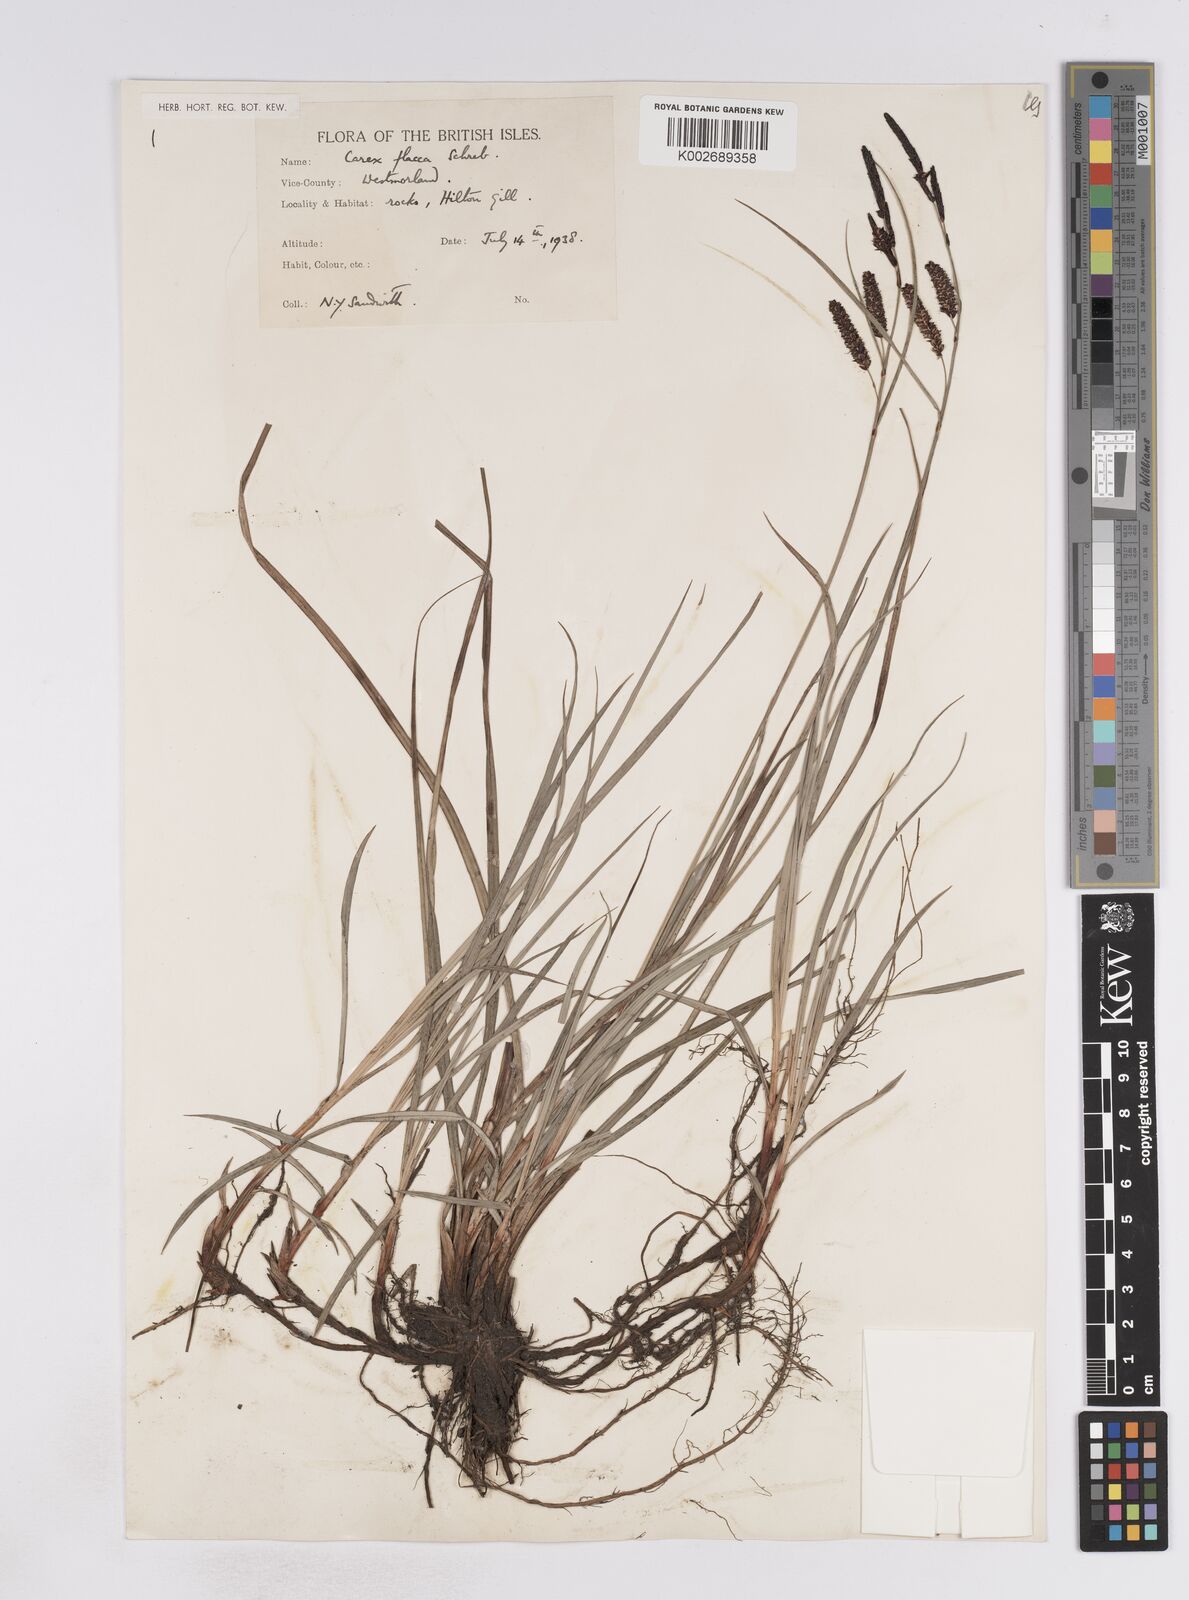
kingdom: Plantae
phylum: Tracheophyta
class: Liliopsida
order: Poales
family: Cyperaceae
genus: Carex
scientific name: Carex flacca
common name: Glaucous sedge
